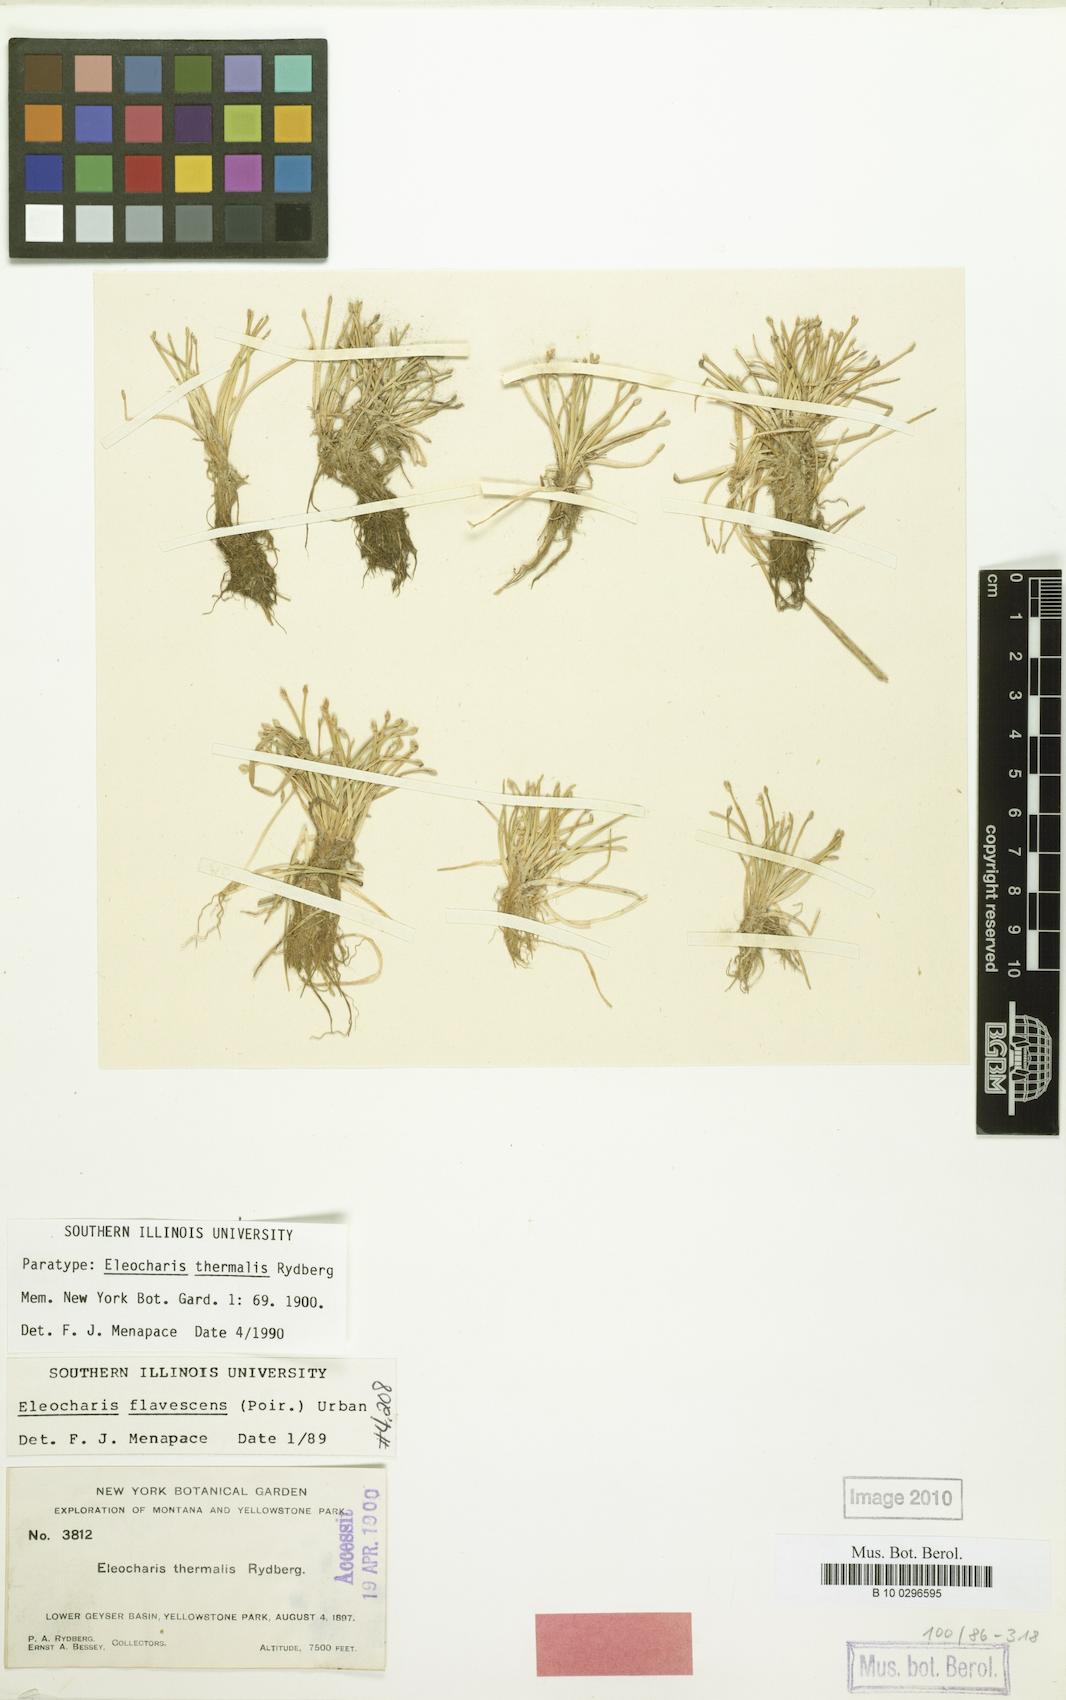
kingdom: Plantae
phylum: Tracheophyta
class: Liliopsida
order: Poales
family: Cyperaceae
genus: Eleocharis
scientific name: Eleocharis flavescens
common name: Yellow spikerush
